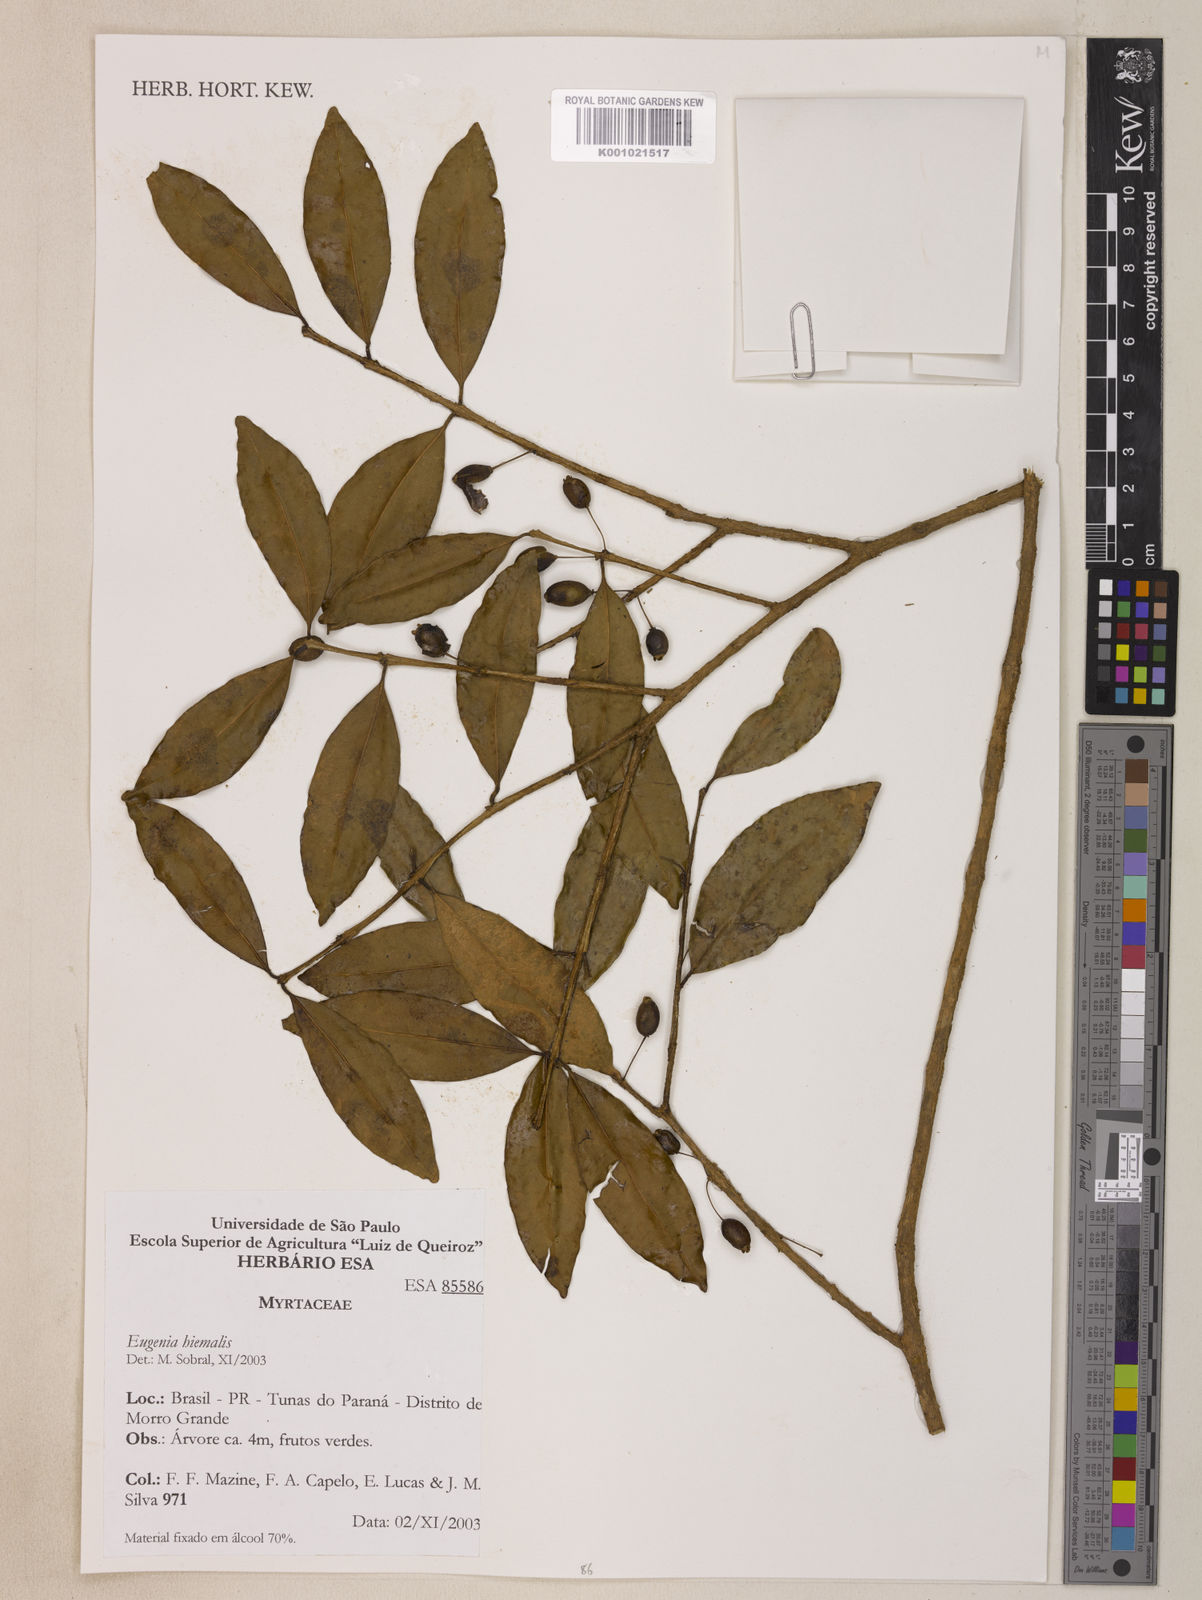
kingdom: Plantae
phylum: Tracheophyta
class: Magnoliopsida
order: Myrtales
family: Myrtaceae
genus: Eugenia
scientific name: Eugenia hiemalis
